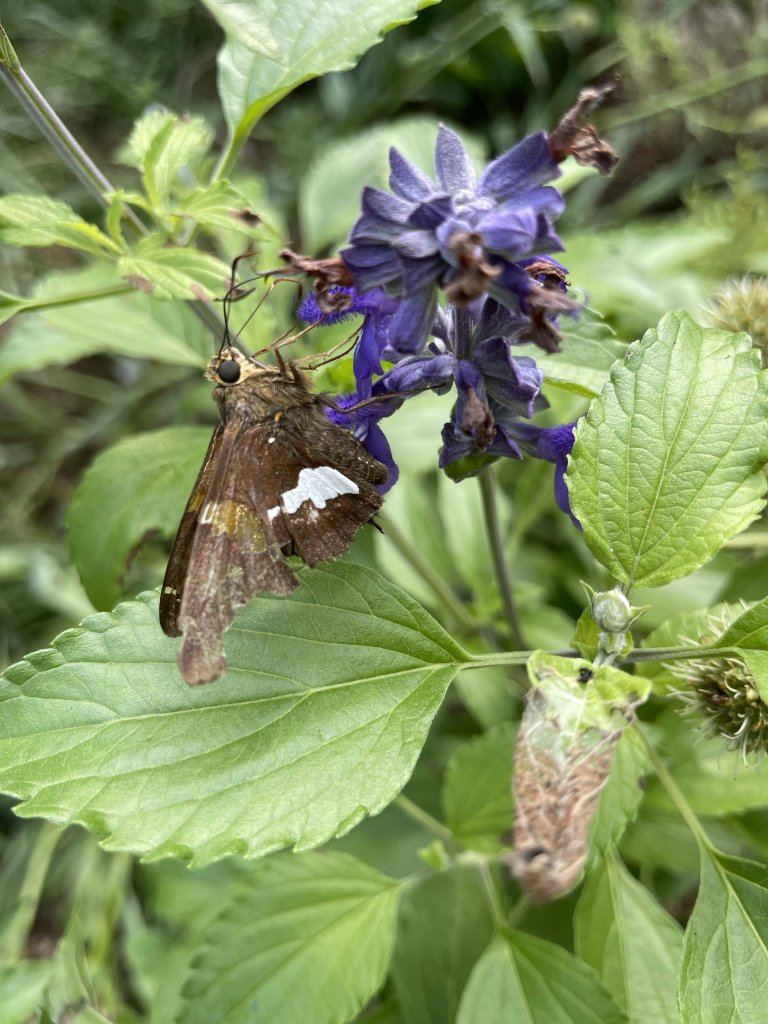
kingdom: Animalia
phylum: Arthropoda
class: Insecta
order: Lepidoptera
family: Hesperiidae
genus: Epargyreus
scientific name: Epargyreus clarus
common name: Silver-spotted Skipper
